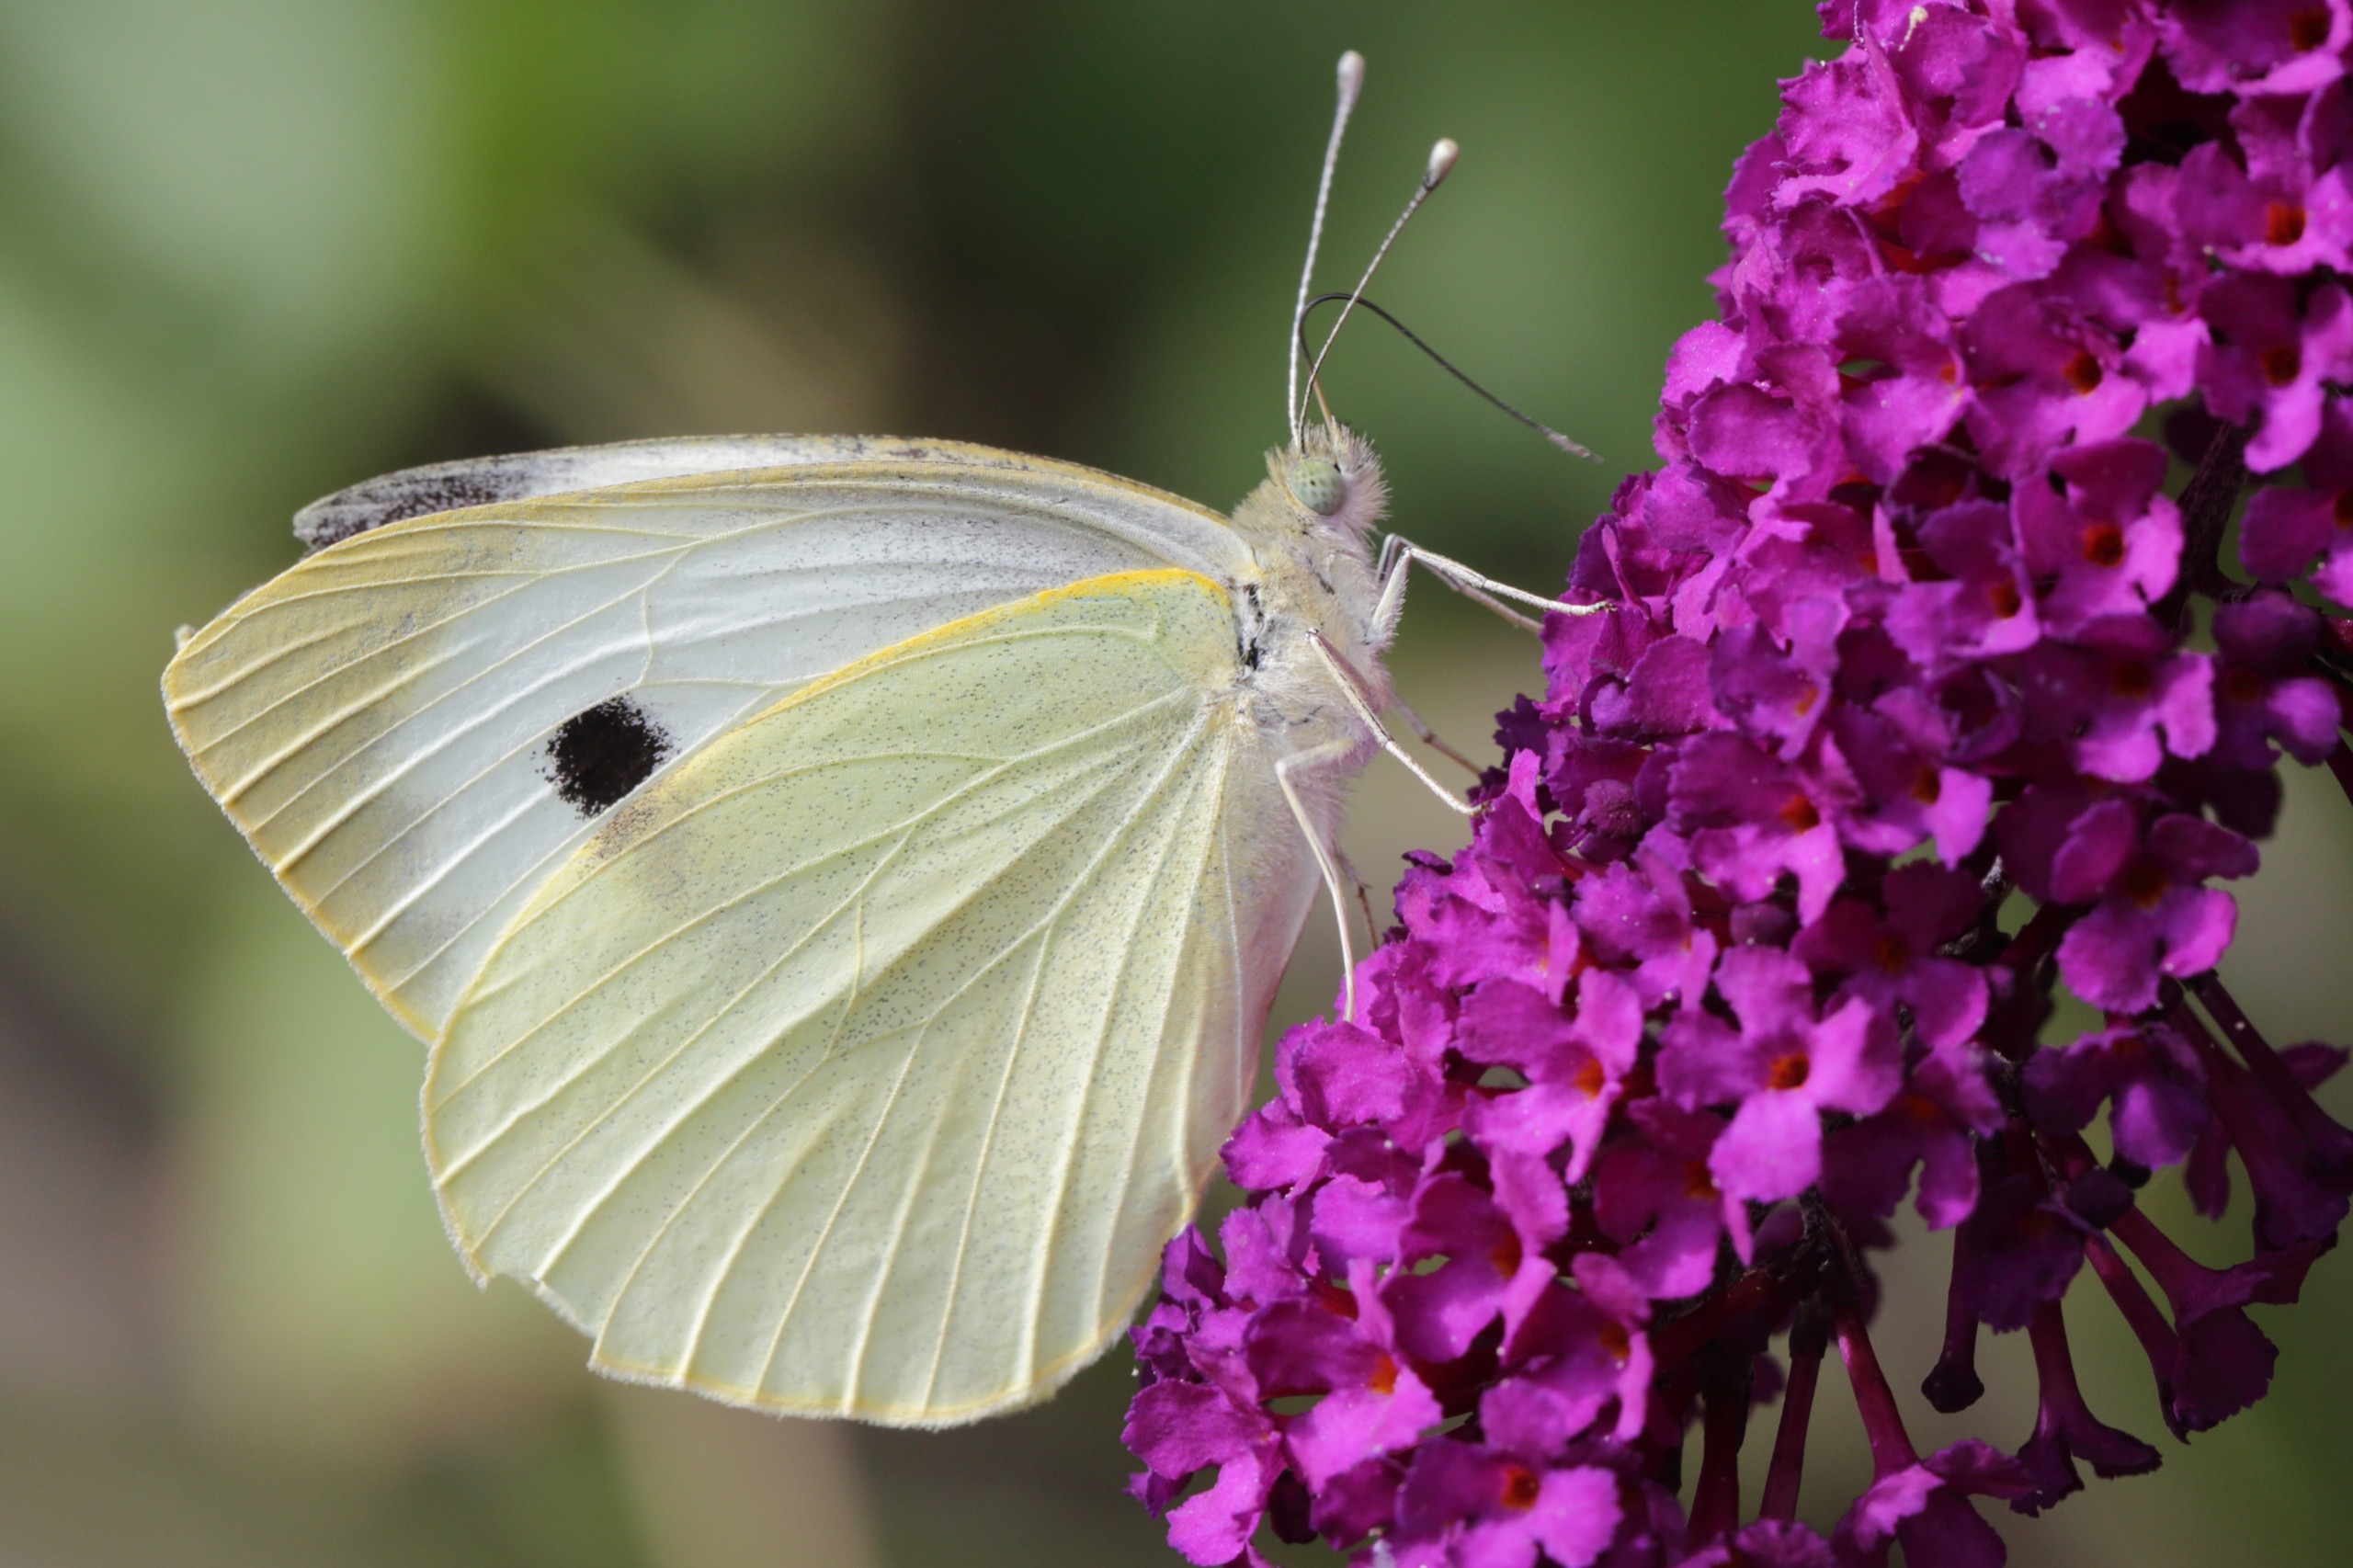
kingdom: Animalia
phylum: Arthropoda
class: Insecta
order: Lepidoptera
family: Pieridae
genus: Pieris
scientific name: Pieris brassicae
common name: Stor kålsommerfugl
